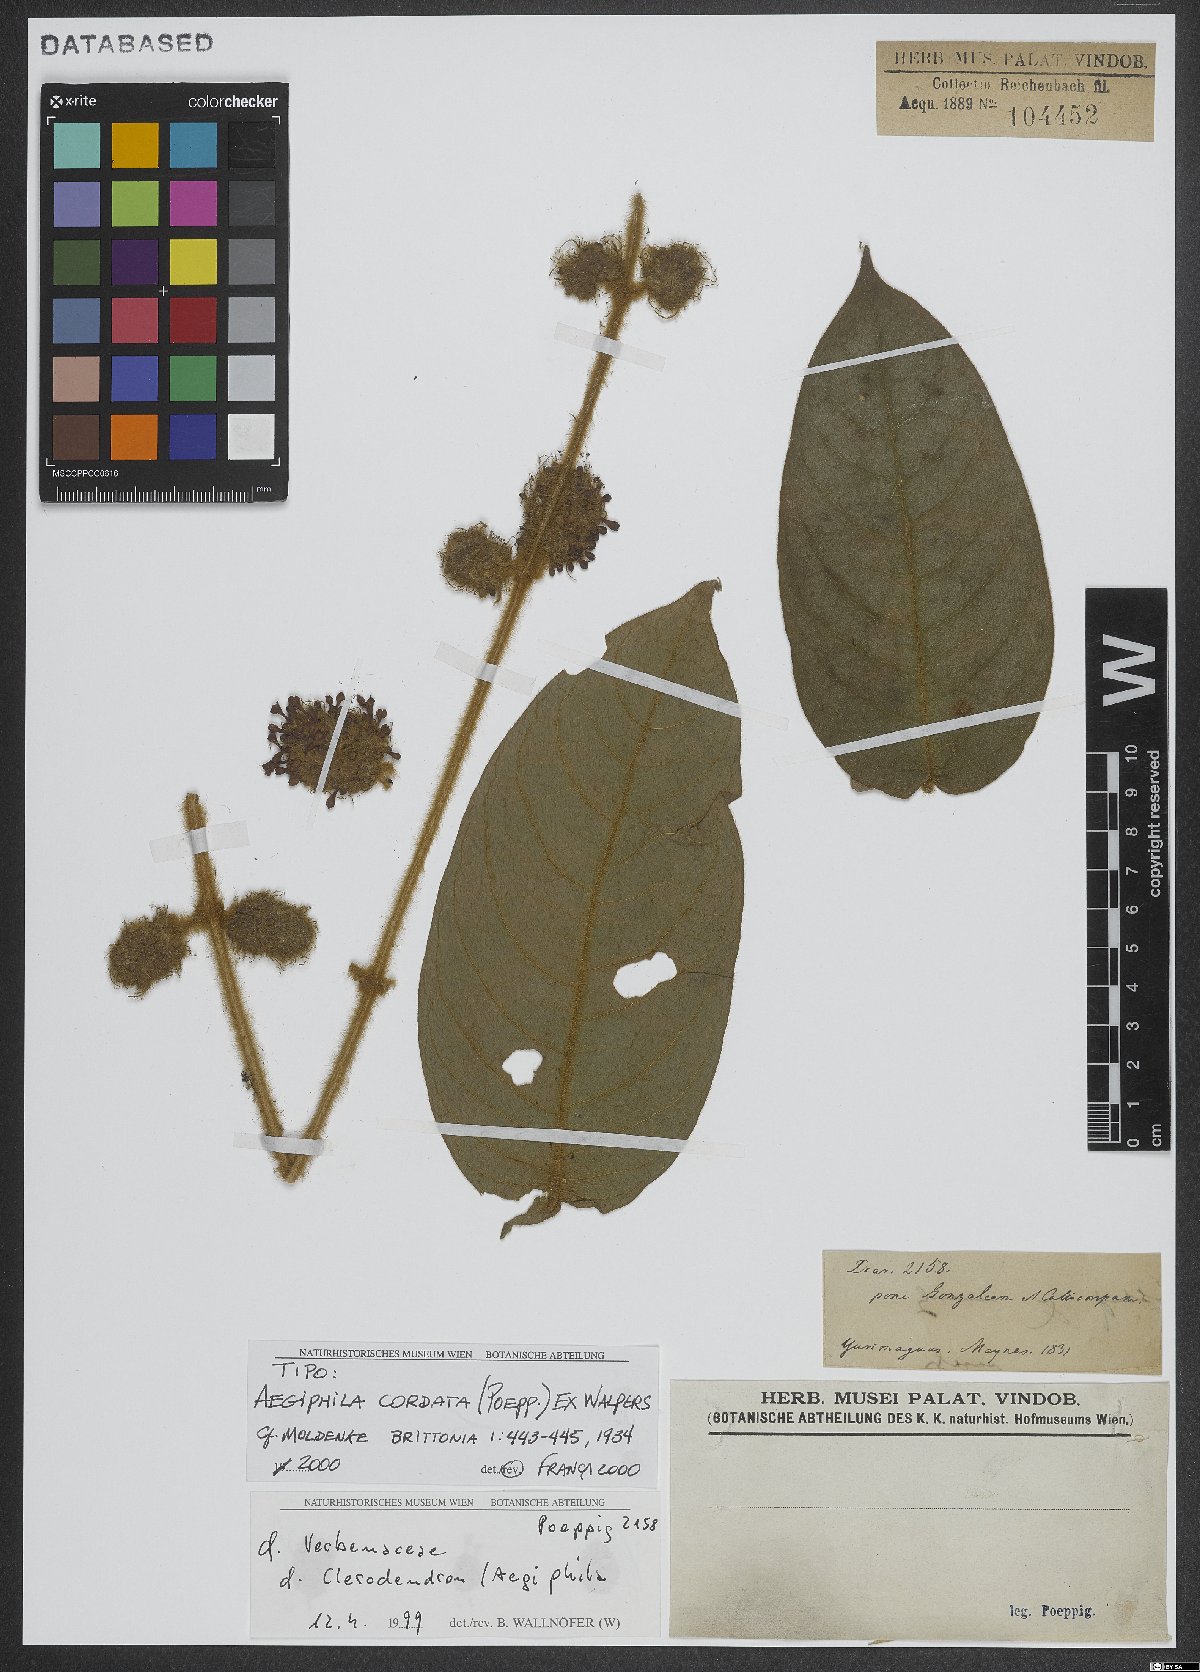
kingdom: Plantae
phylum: Tracheophyta
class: Magnoliopsida
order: Lamiales
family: Lamiaceae
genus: Aegiphila
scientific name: Aegiphila cordata
